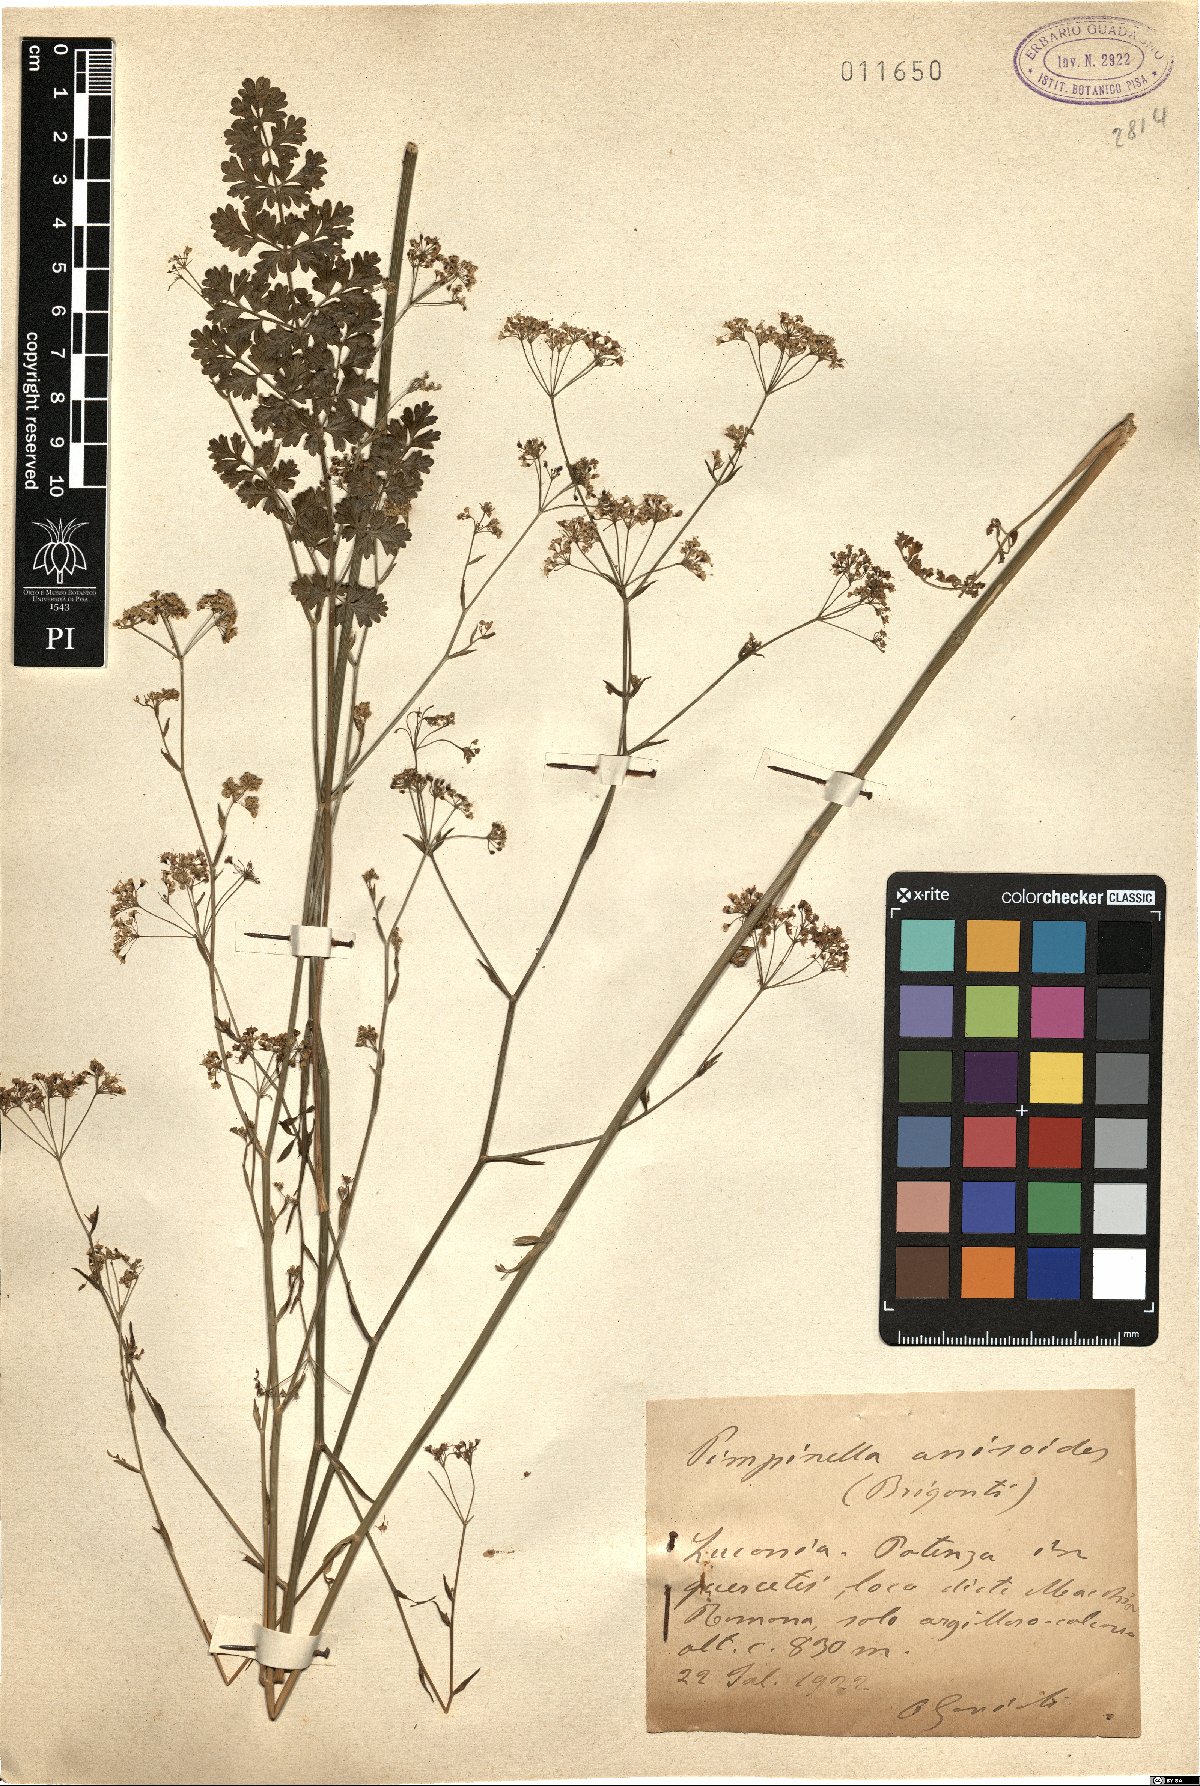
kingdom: Plantae
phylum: Tracheophyta
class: Magnoliopsida
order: Apiales
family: Apiaceae
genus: Pimpinella
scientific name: Pimpinella anisoides
